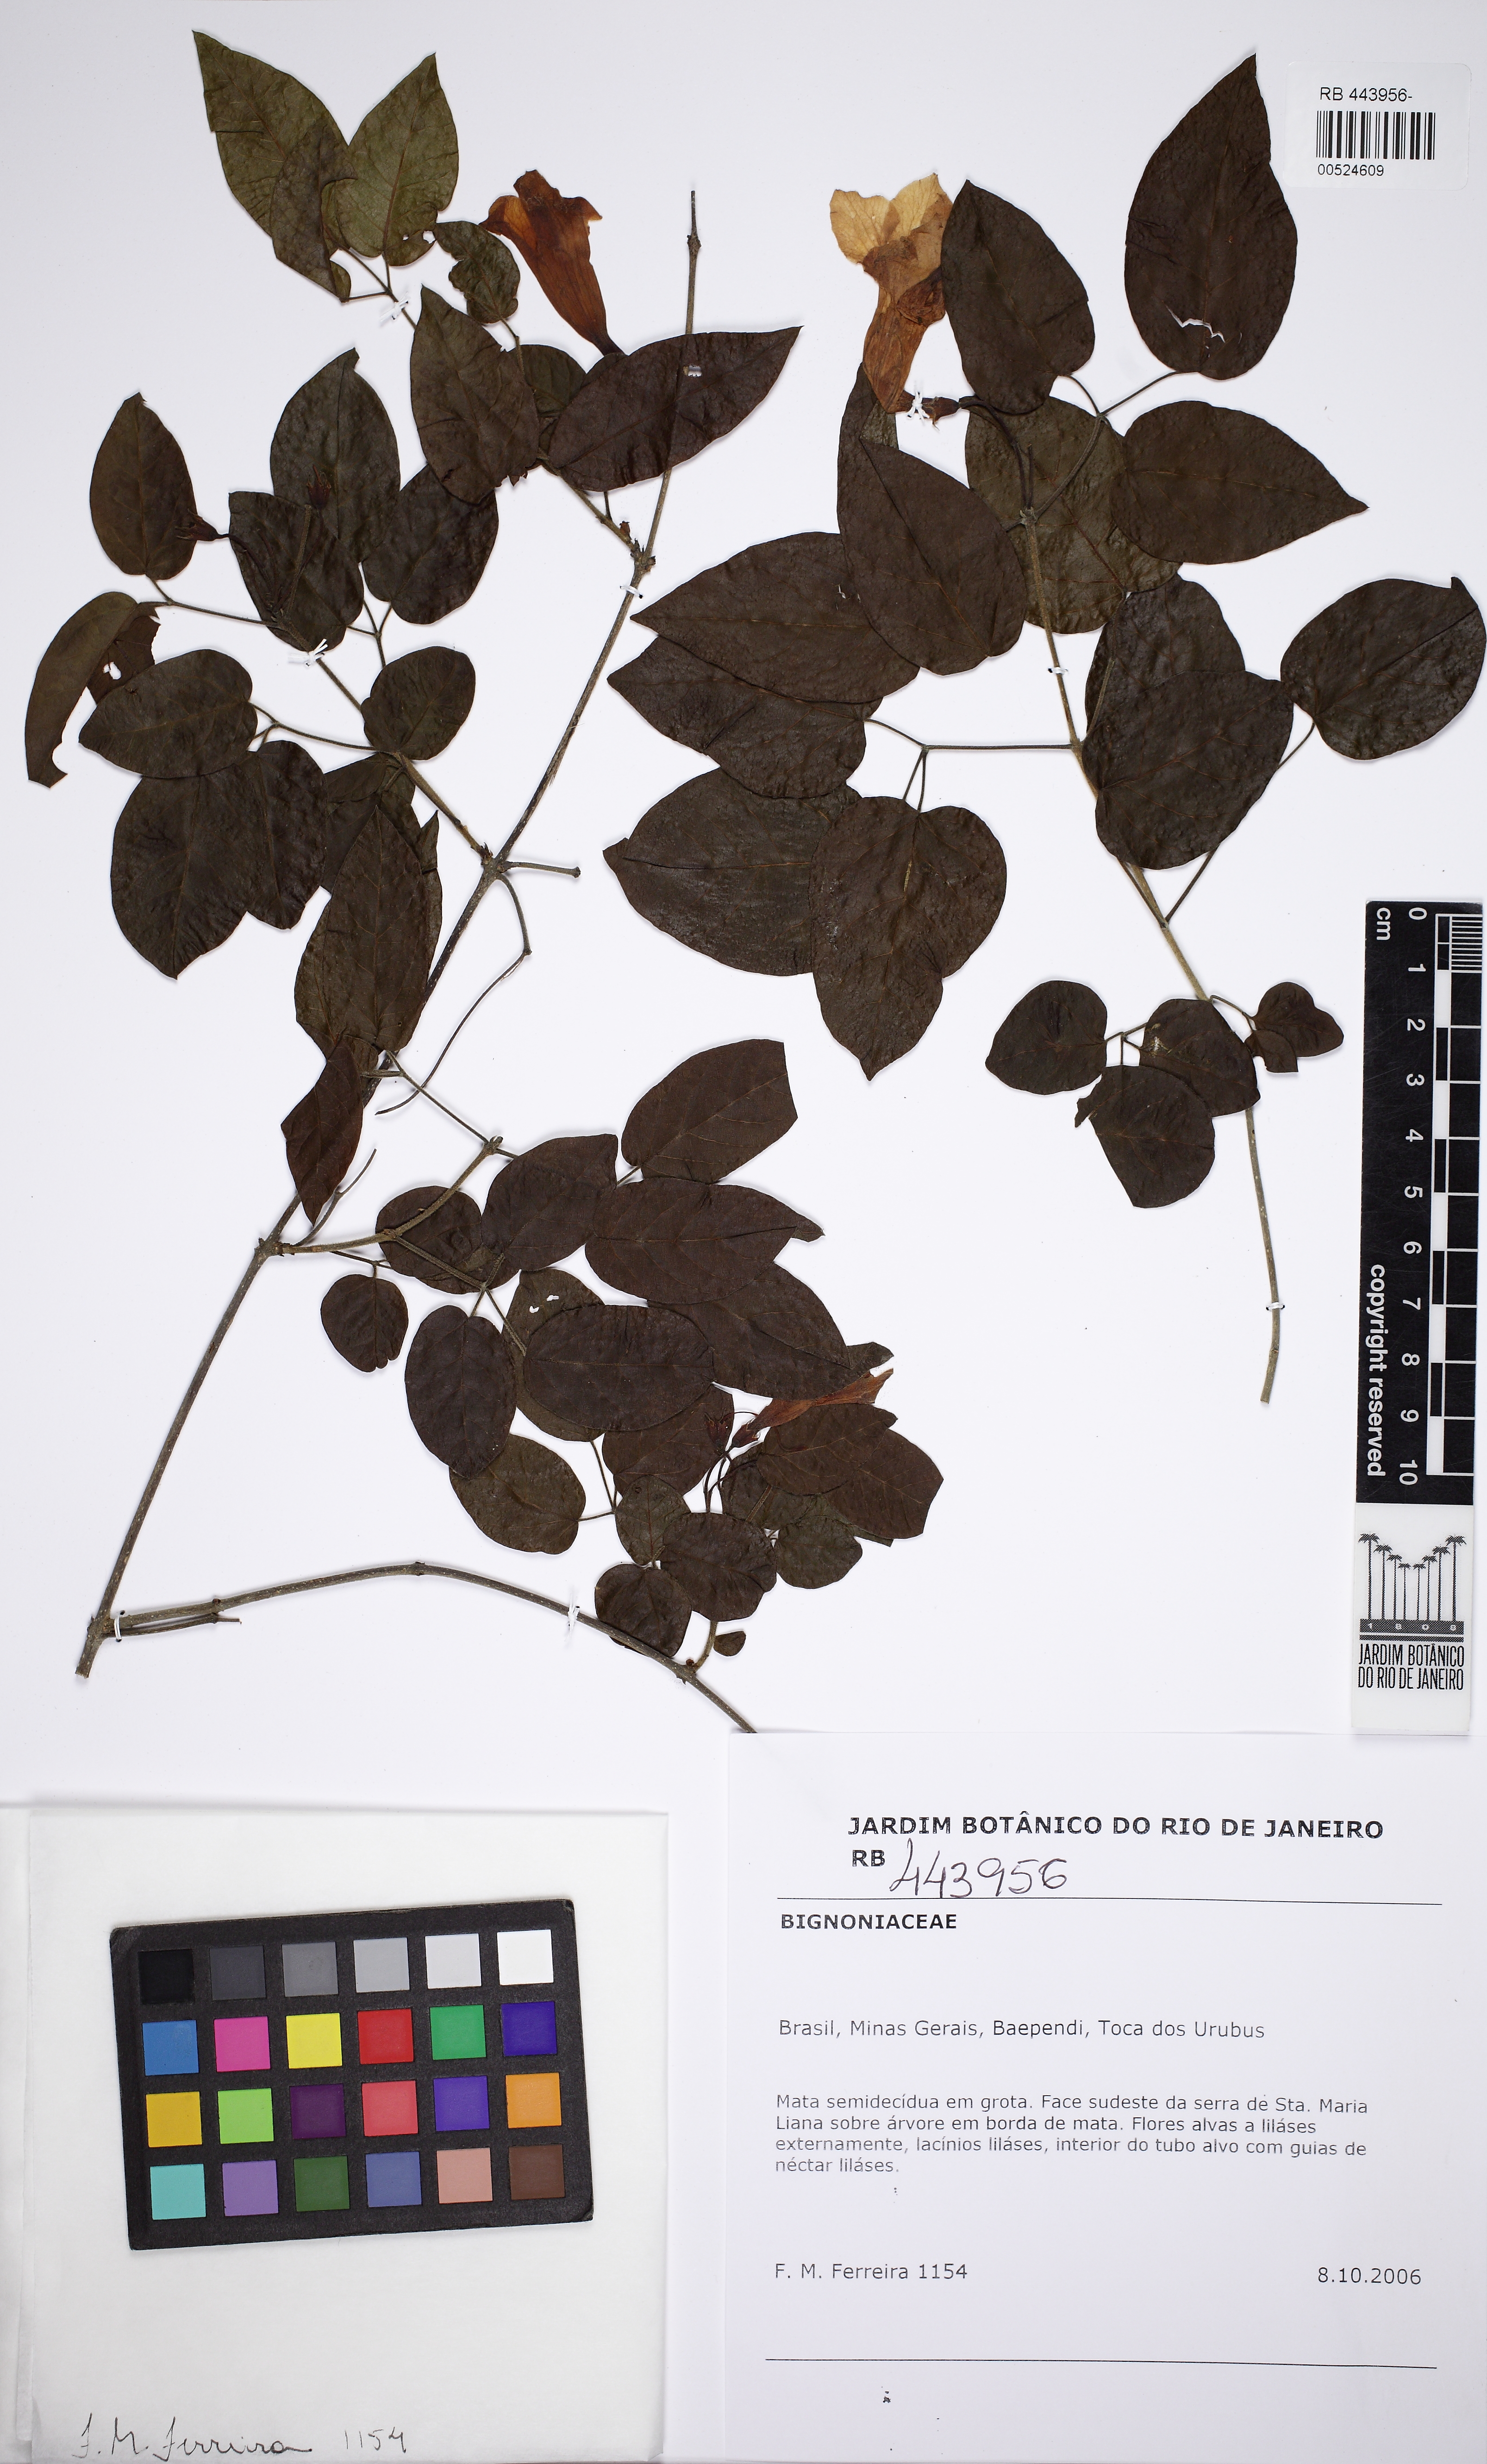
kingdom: Plantae
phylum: Tracheophyta
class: Magnoliopsida
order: Lamiales
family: Bignoniaceae
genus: Martinella
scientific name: Martinella insignis
